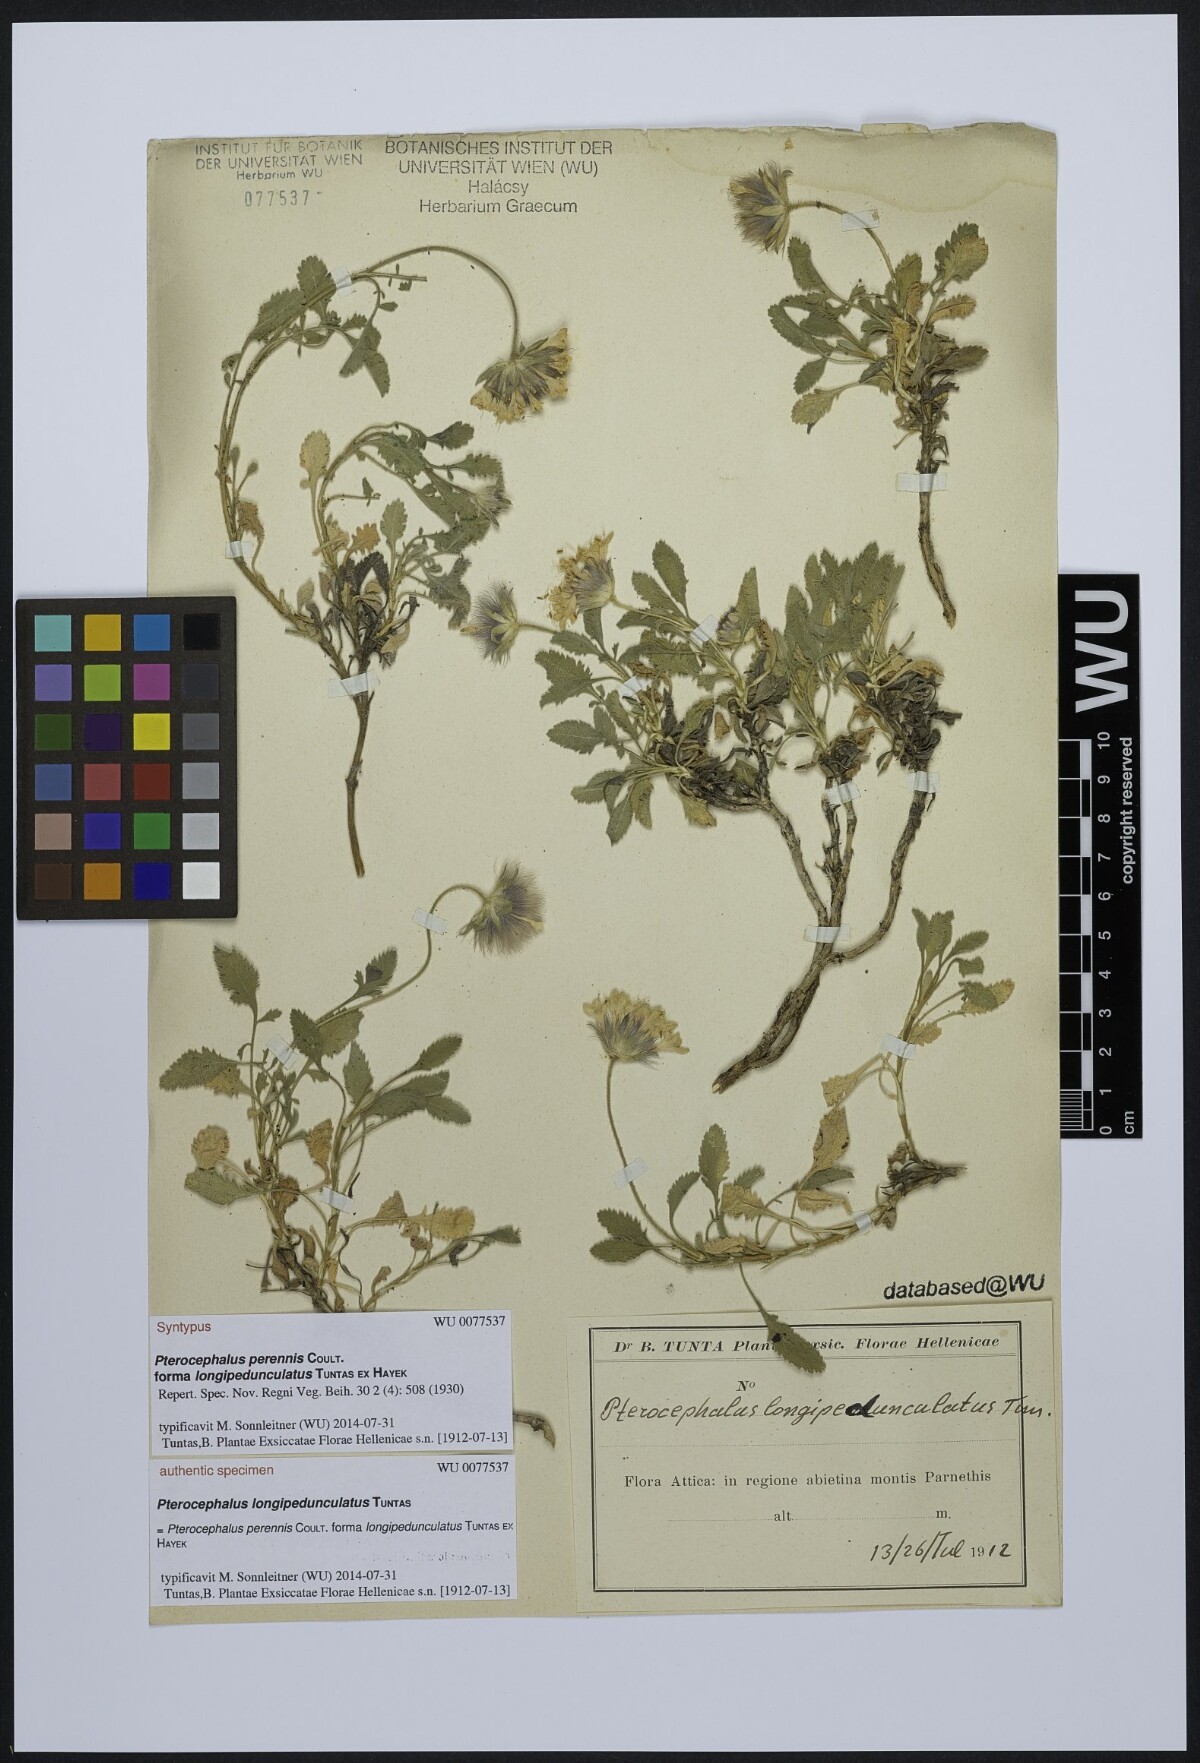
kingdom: Plantae
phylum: Tracheophyta
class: Magnoliopsida
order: Dipsacales
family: Caprifoliaceae
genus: Pterocephalus
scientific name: Pterocephalus perennis
